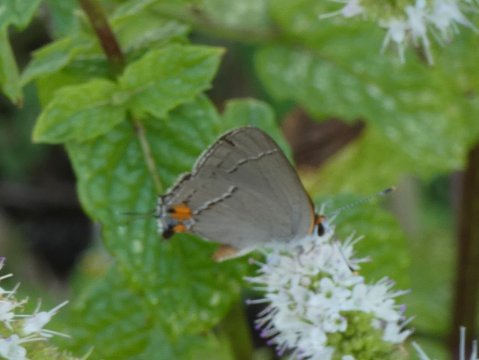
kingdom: Animalia
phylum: Arthropoda
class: Insecta
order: Lepidoptera
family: Lycaenidae
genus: Strymon
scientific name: Strymon melinus
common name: Gray Hairstreak
